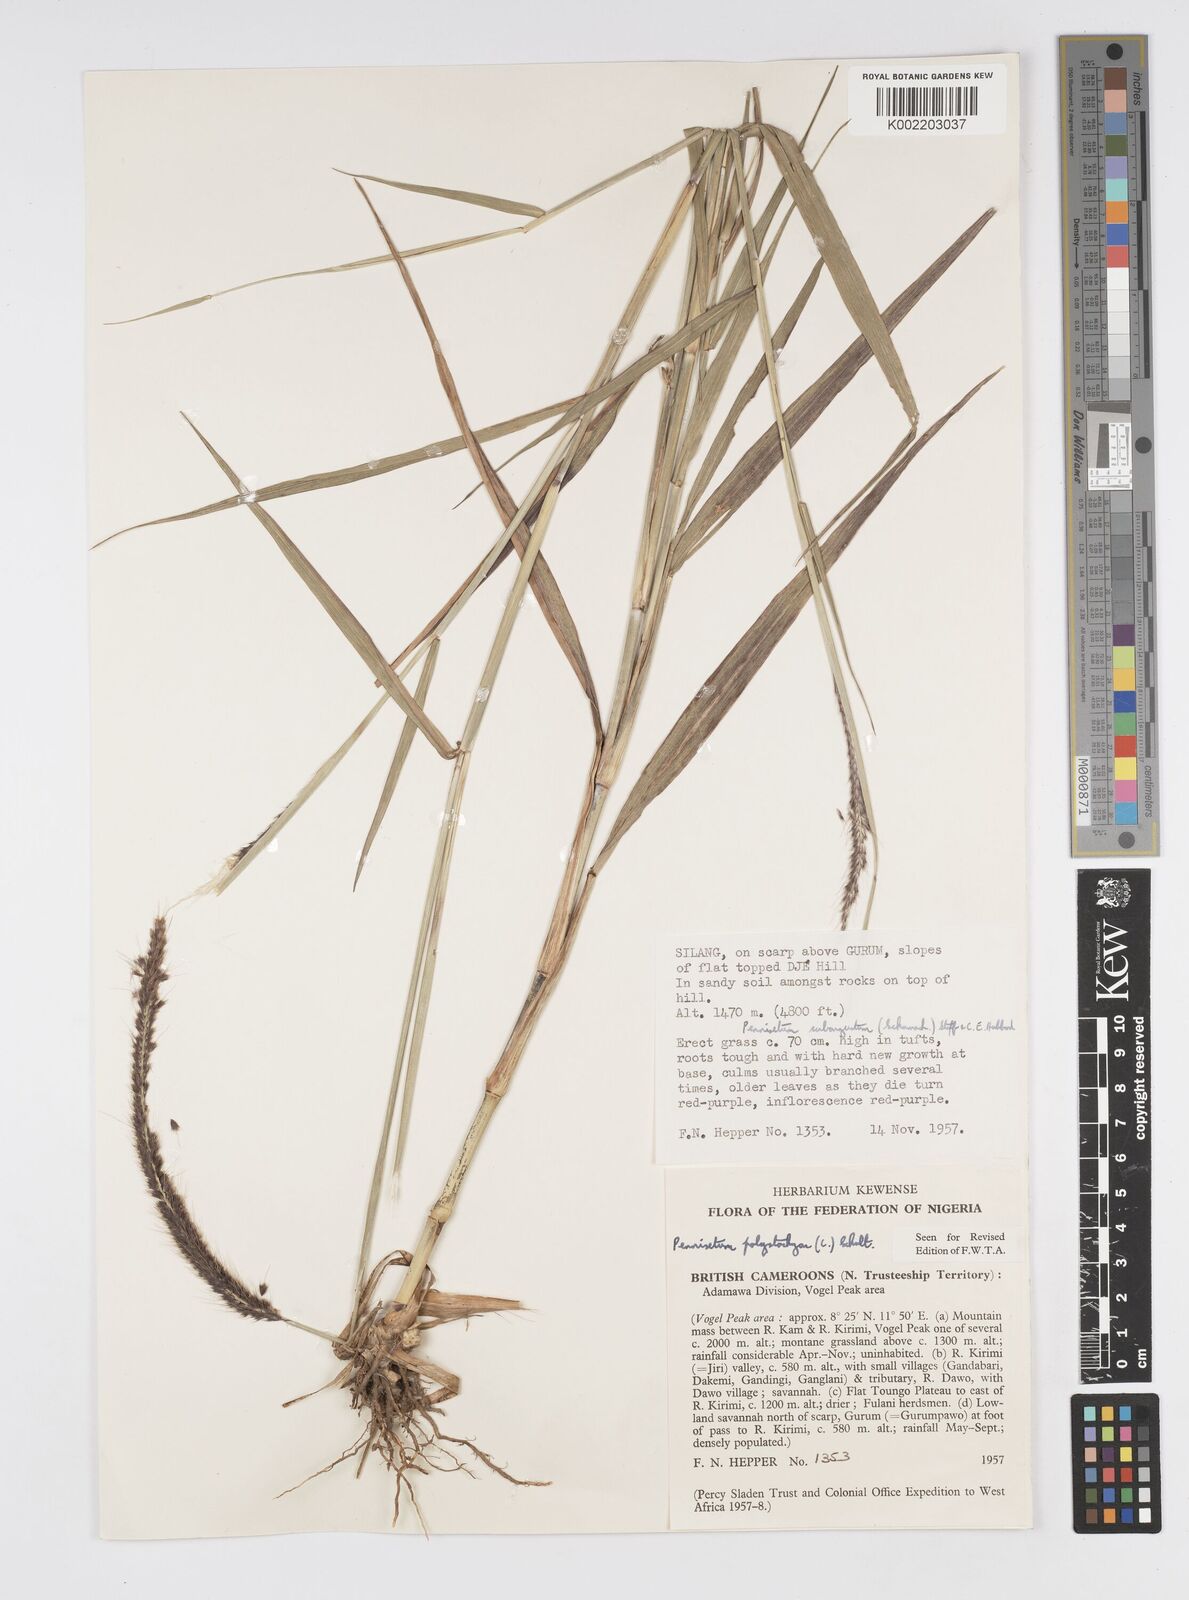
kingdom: Plantae
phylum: Tracheophyta
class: Liliopsida
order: Poales
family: Poaceae
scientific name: Poaceae
